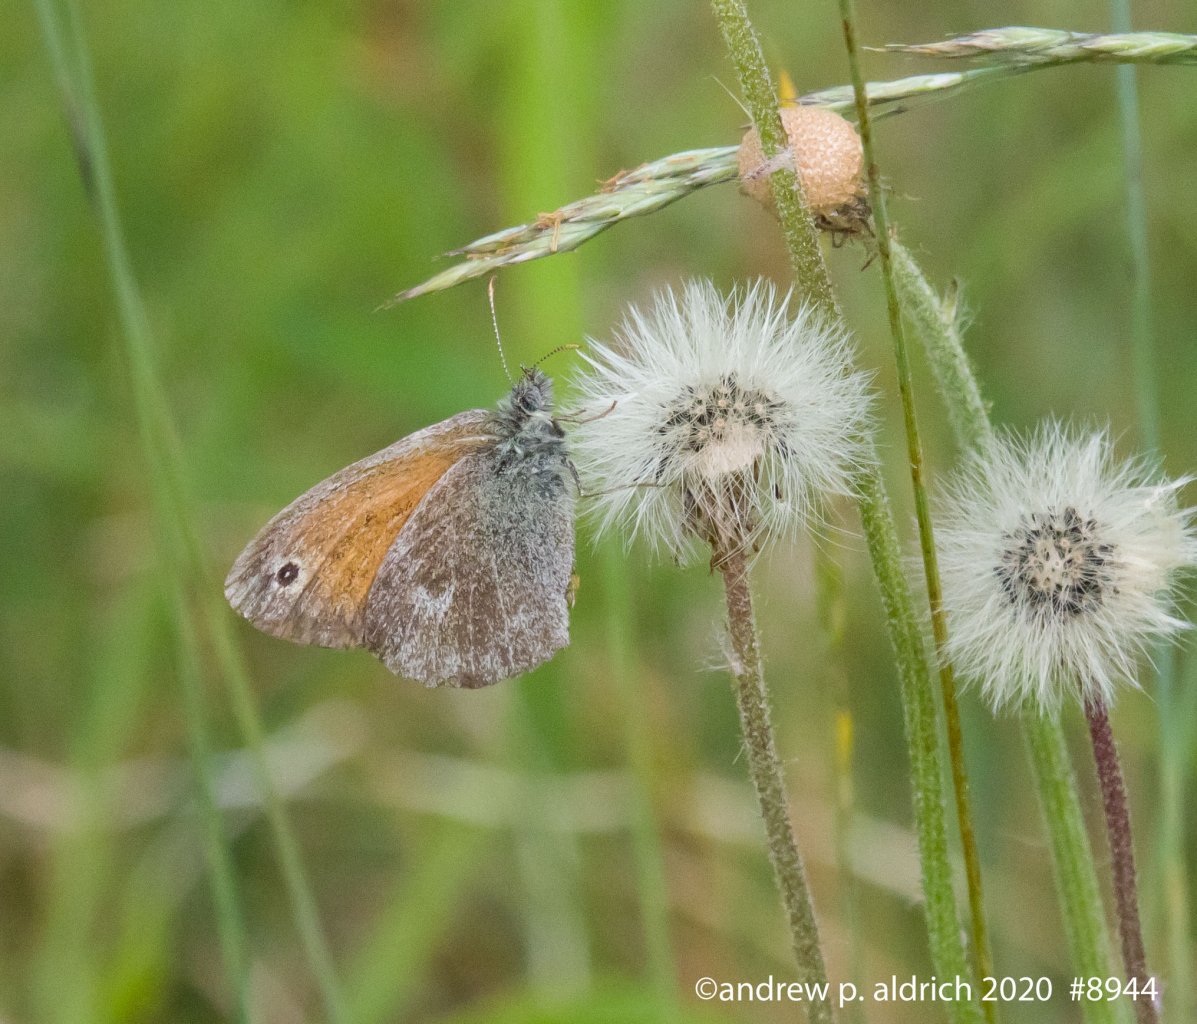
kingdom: Animalia
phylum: Arthropoda
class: Insecta
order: Lepidoptera
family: Nymphalidae
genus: Coenonympha
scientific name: Coenonympha tullia
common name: Large Heath
